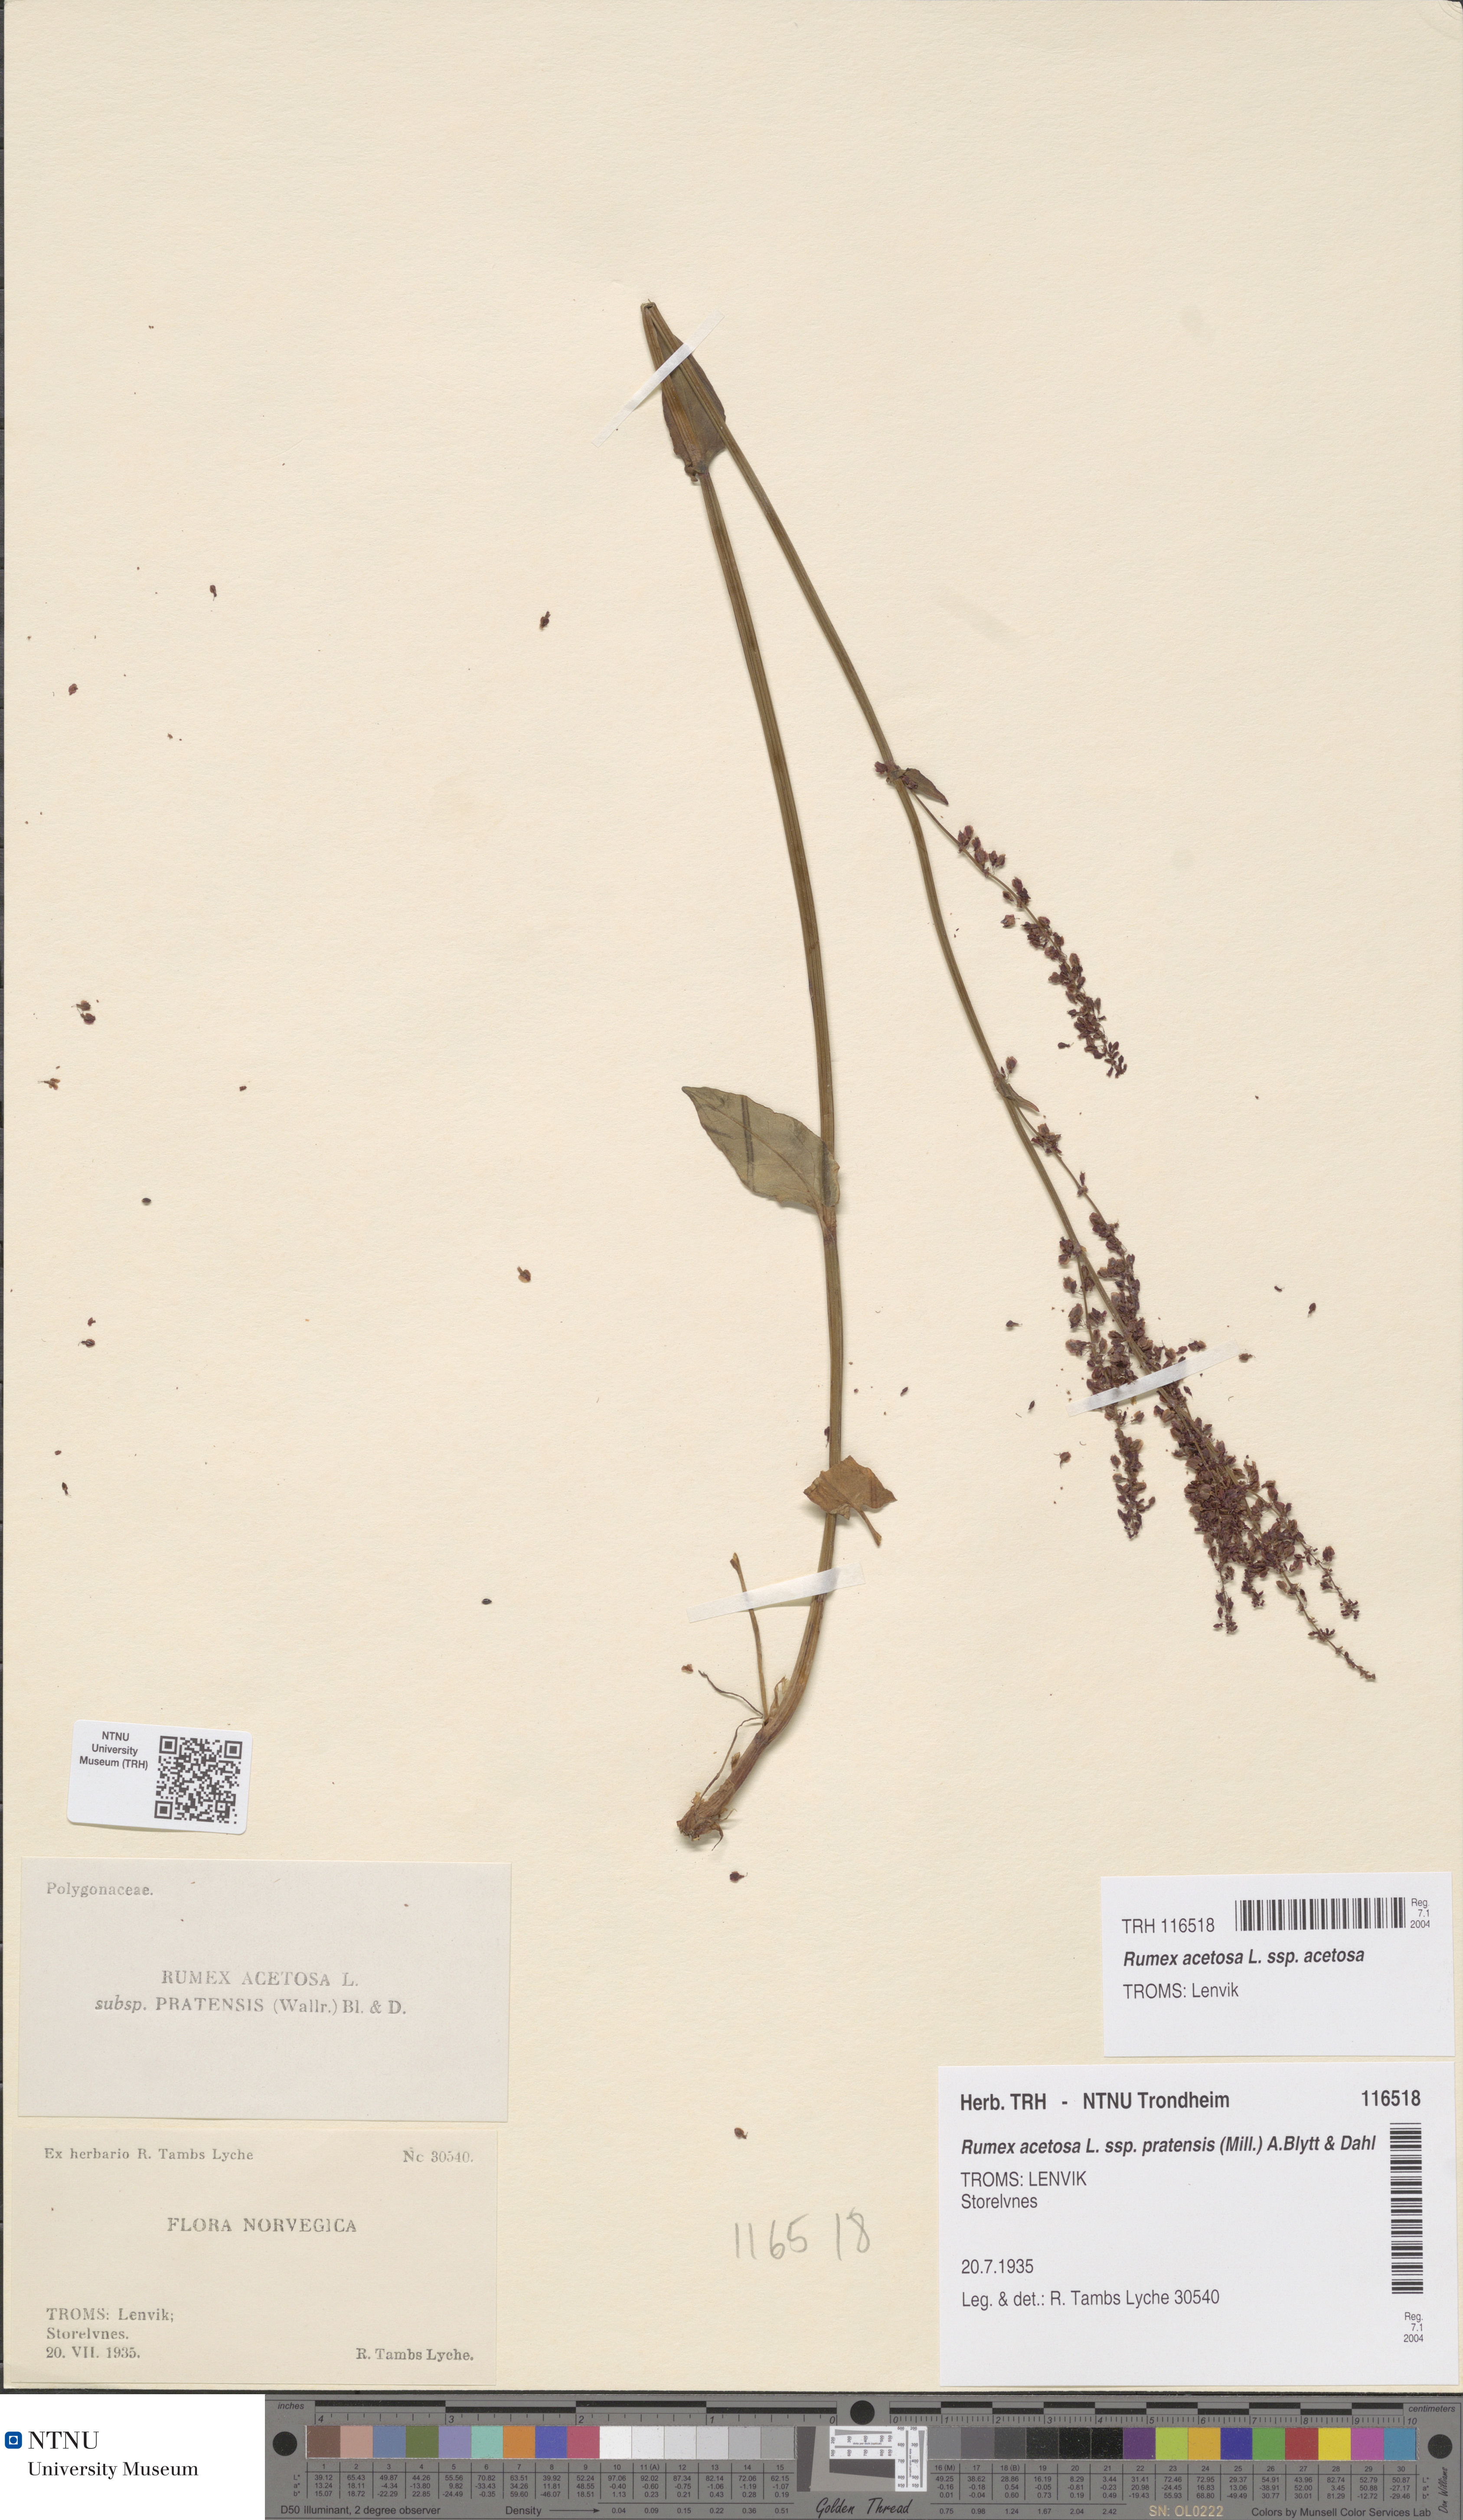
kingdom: Plantae
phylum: Tracheophyta
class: Magnoliopsida
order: Caryophyllales
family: Polygonaceae
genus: Rumex
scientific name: Rumex acetosa
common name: Garden sorrel
